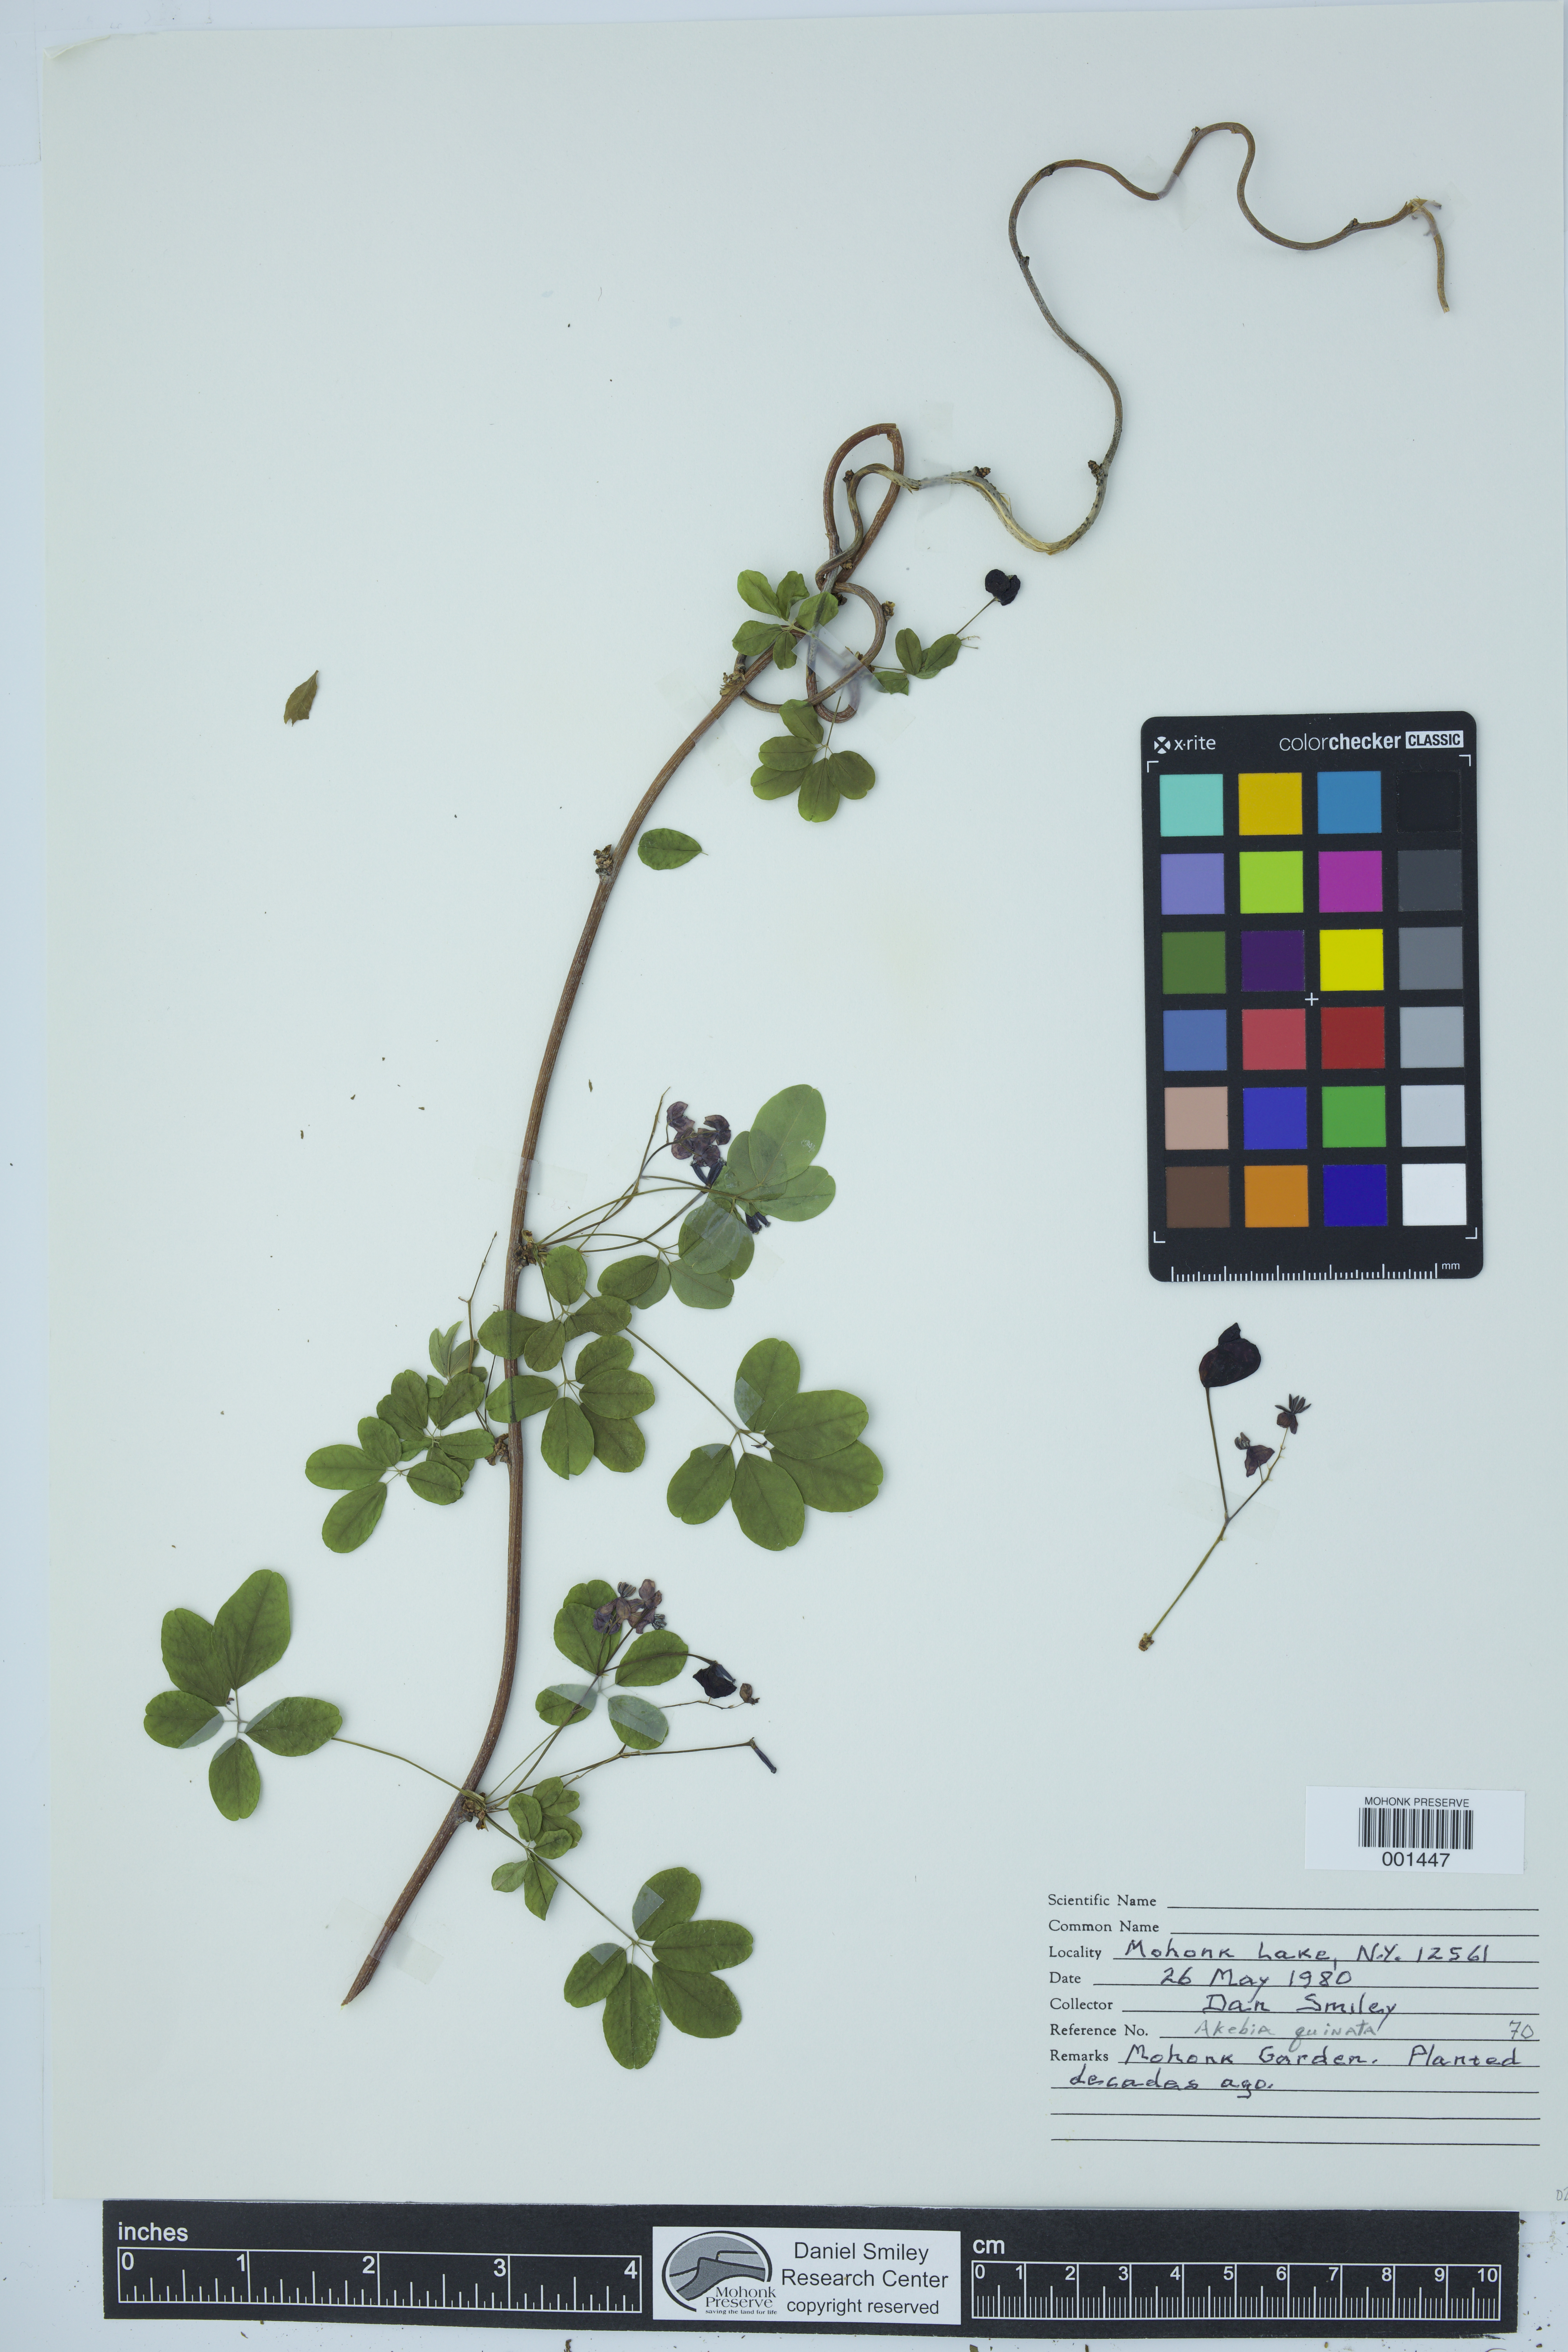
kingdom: Plantae
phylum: Tracheophyta
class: Magnoliopsida
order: Ranunculales
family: Lardizabalaceae
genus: Akebia
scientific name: Akebia quinata
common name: Five-leaf akebia
